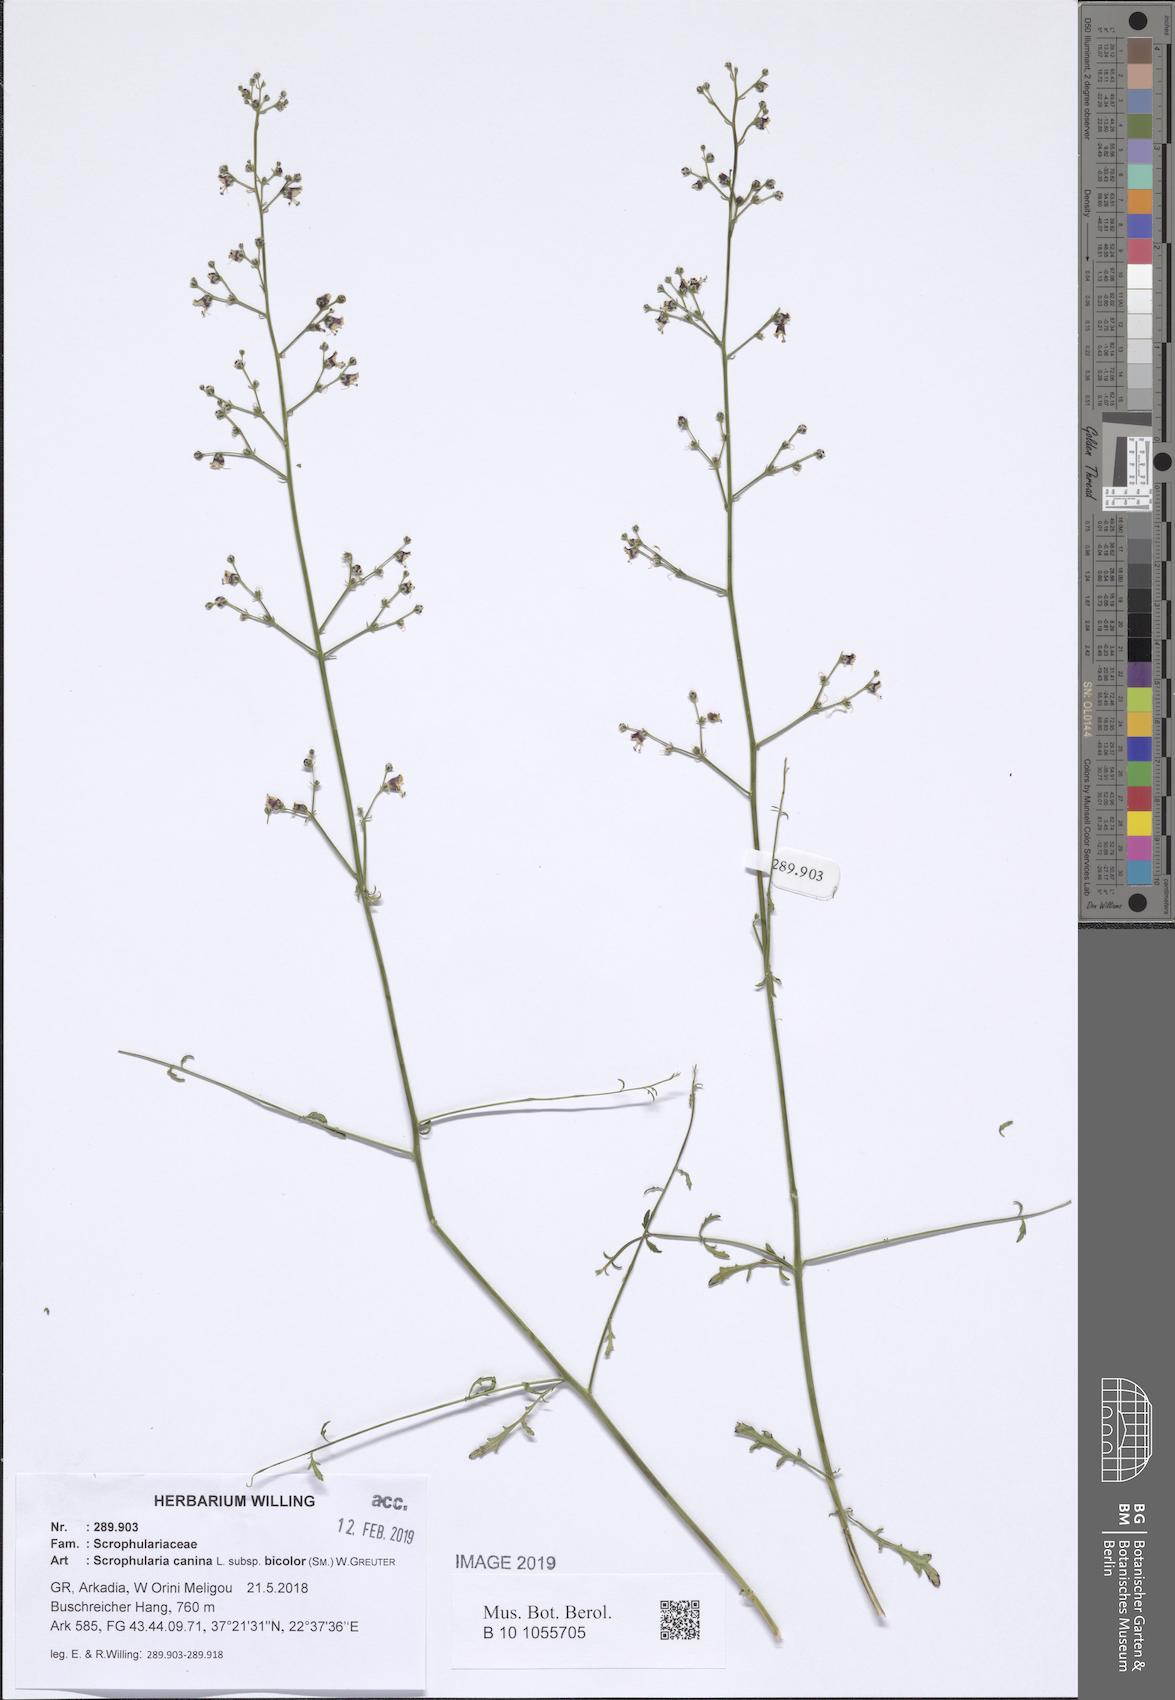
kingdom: Plantae
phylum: Tracheophyta
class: Magnoliopsida
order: Lamiales
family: Scrophulariaceae
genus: Scrophularia
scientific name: Scrophularia canina
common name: French figwort
